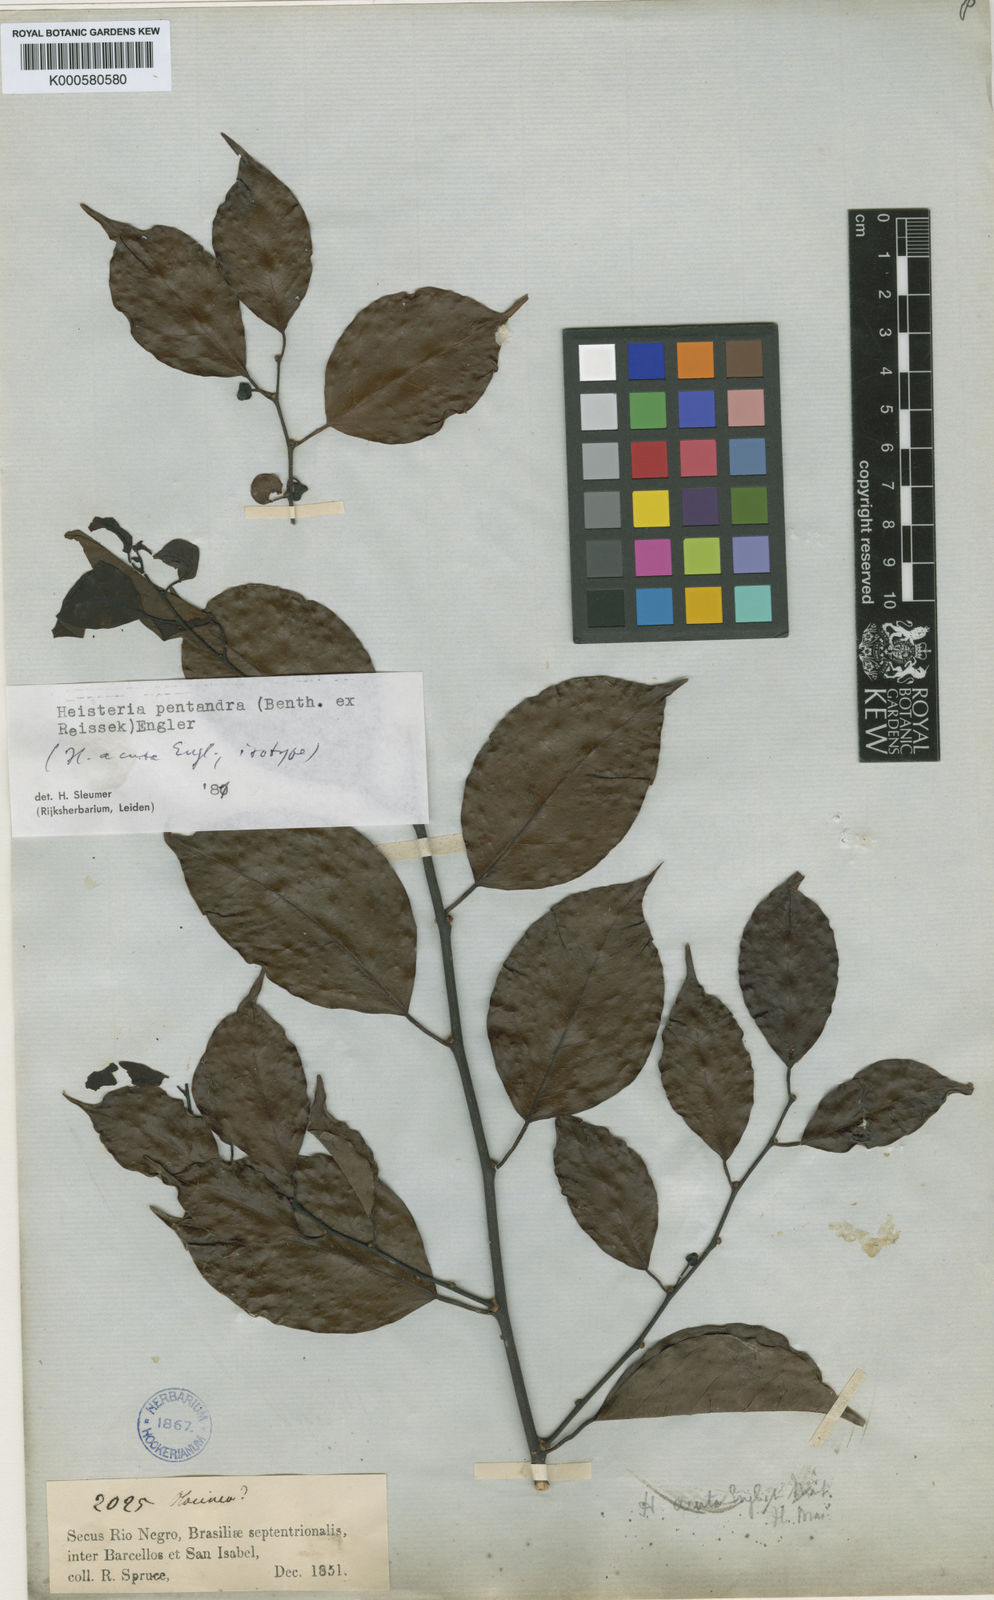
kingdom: Plantae
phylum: Tracheophyta
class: Magnoliopsida
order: Santalales
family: Erythropalaceae
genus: Heisteria
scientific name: Heisteria pentandra
